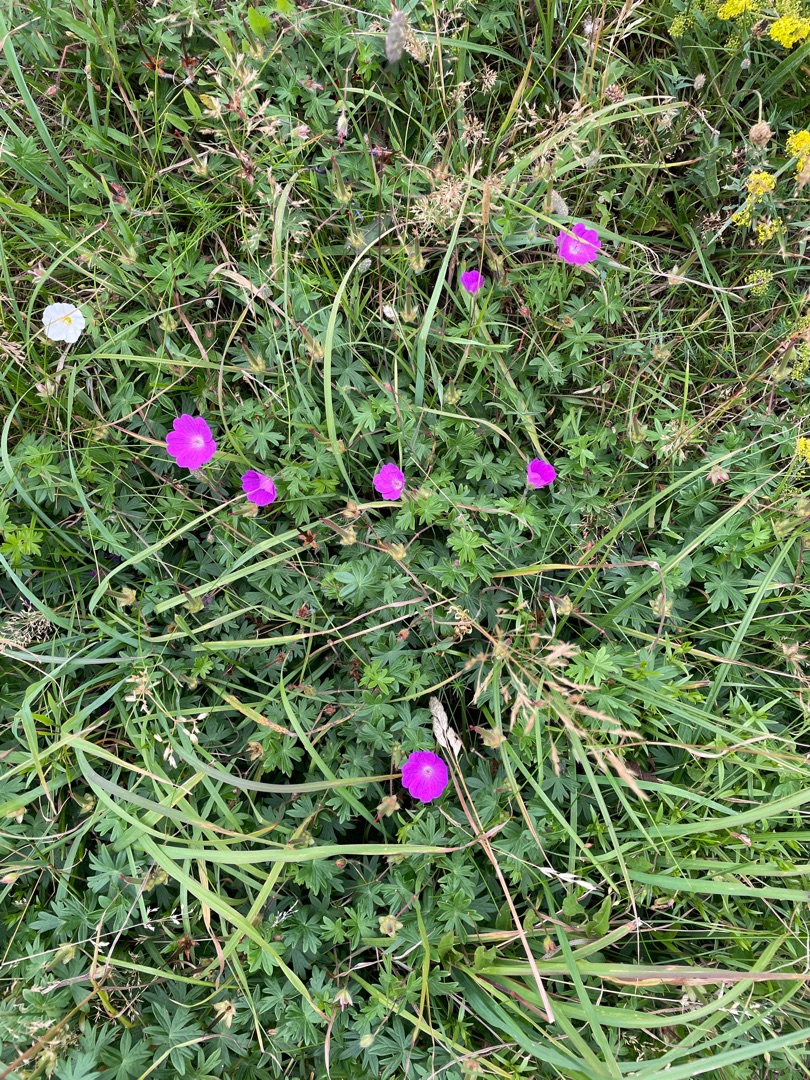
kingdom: Plantae
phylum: Tracheophyta
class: Magnoliopsida
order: Geraniales
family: Geraniaceae
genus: Geranium
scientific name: Geranium sanguineum
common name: Blodrød storkenæb
